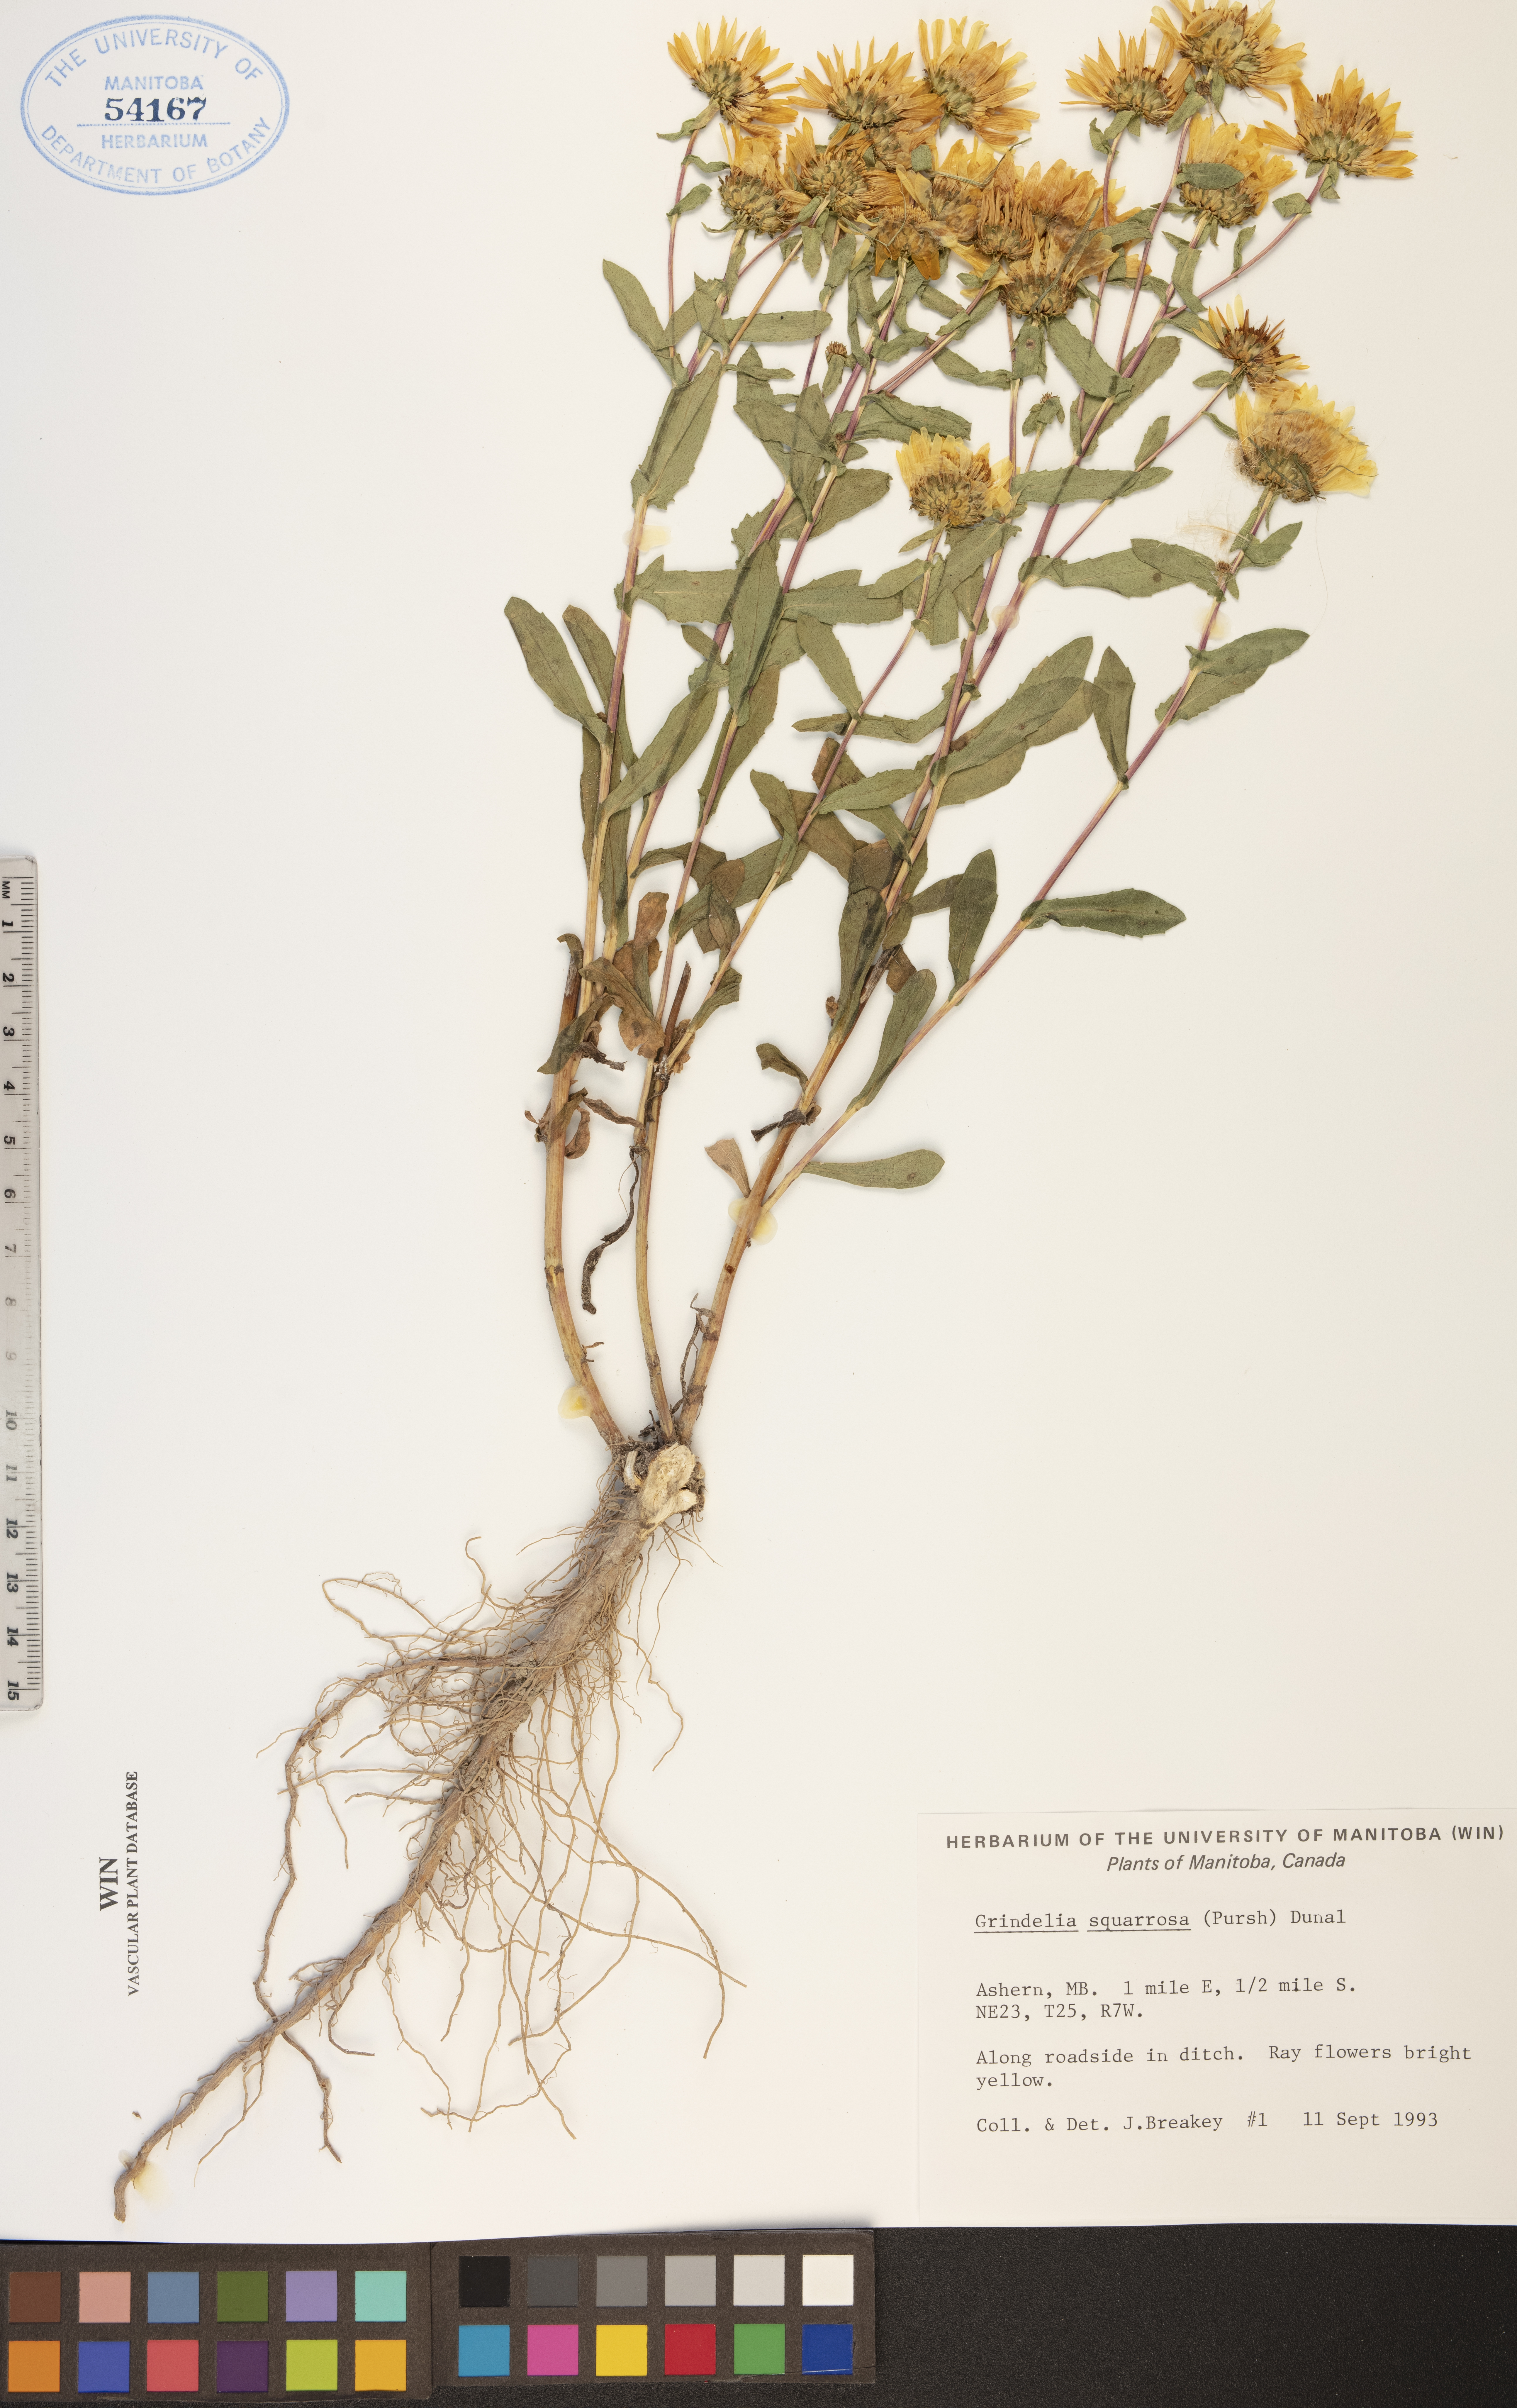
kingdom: Plantae
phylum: Tracheophyta
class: Magnoliopsida
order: Asterales
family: Asteraceae
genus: Grindelia
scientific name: Grindelia squarrosa
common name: Curly-cup gumweed
